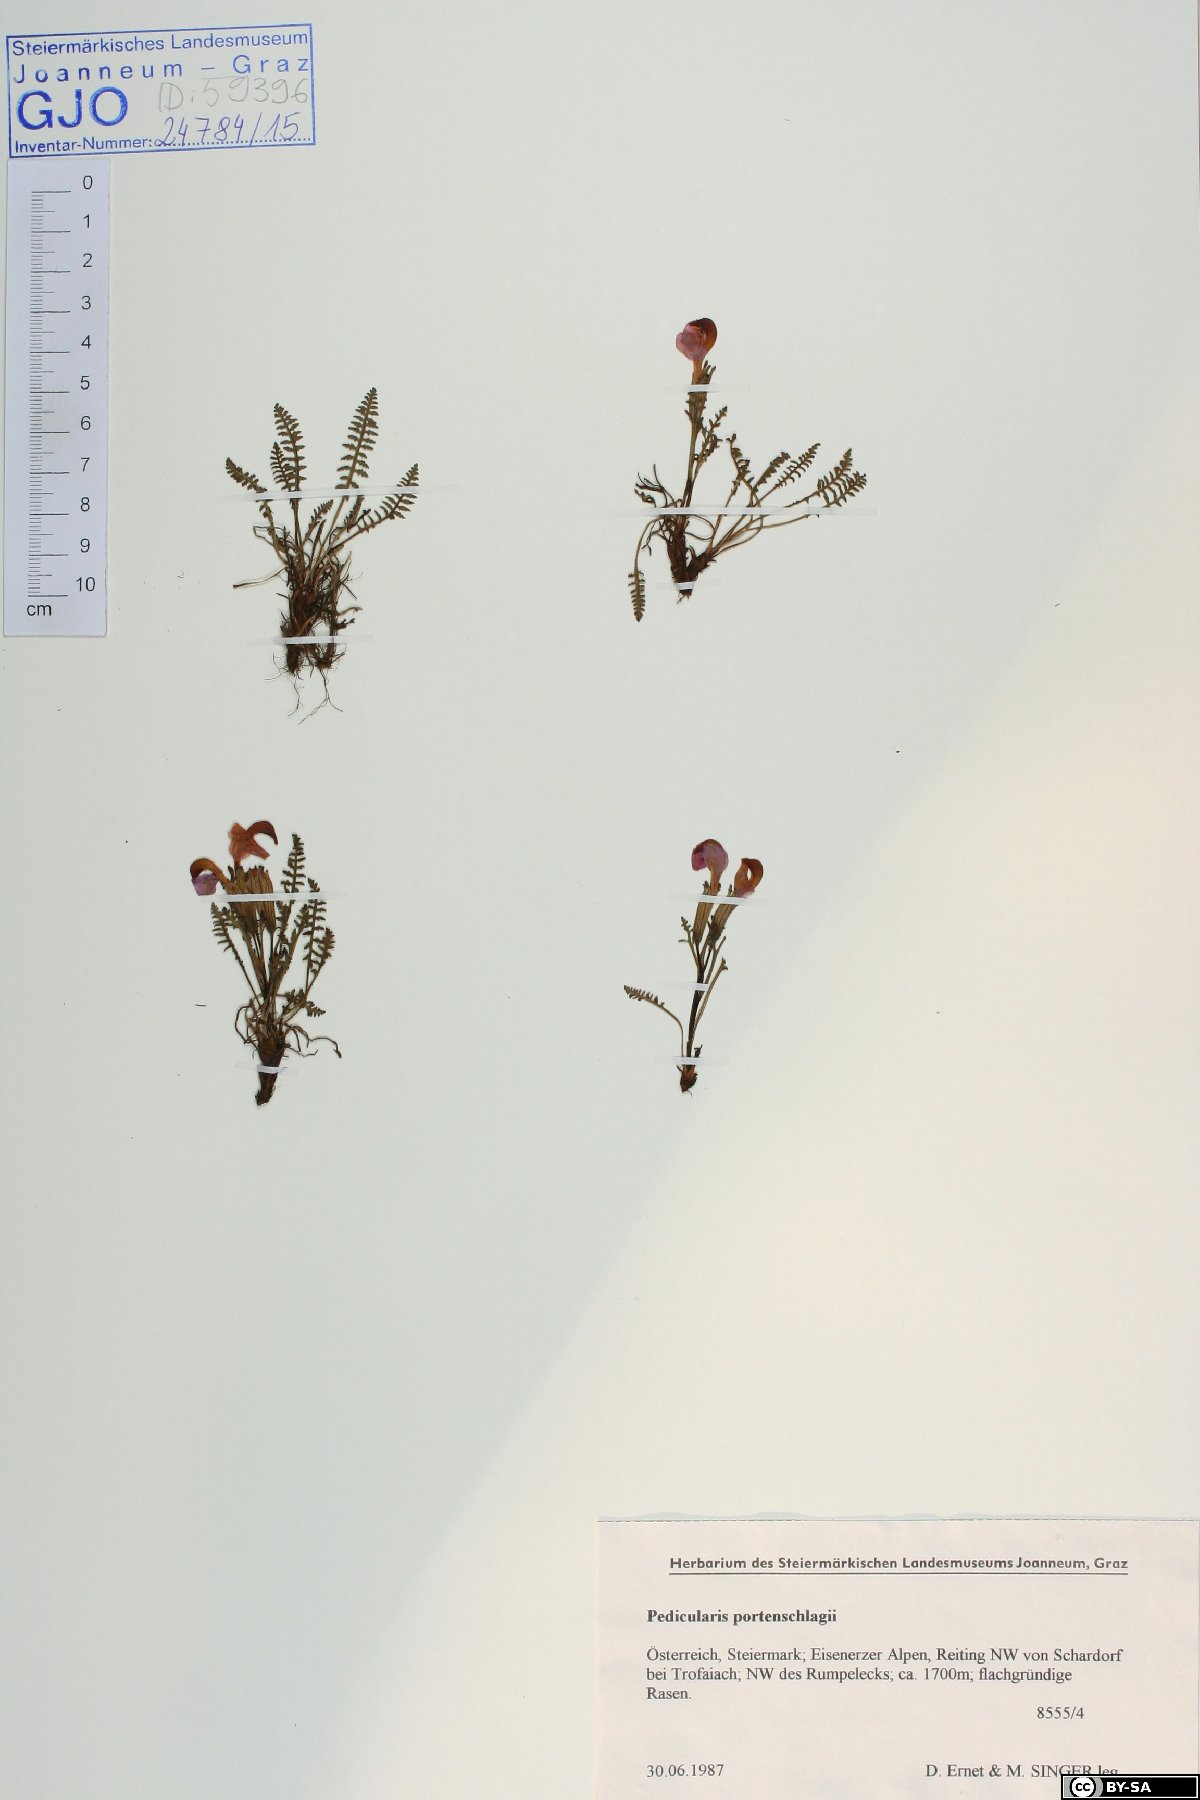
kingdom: Plantae
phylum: Tracheophyta
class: Magnoliopsida
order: Lamiales
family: Orobanchaceae
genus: Pedicularis
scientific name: Pedicularis portenschlagii
